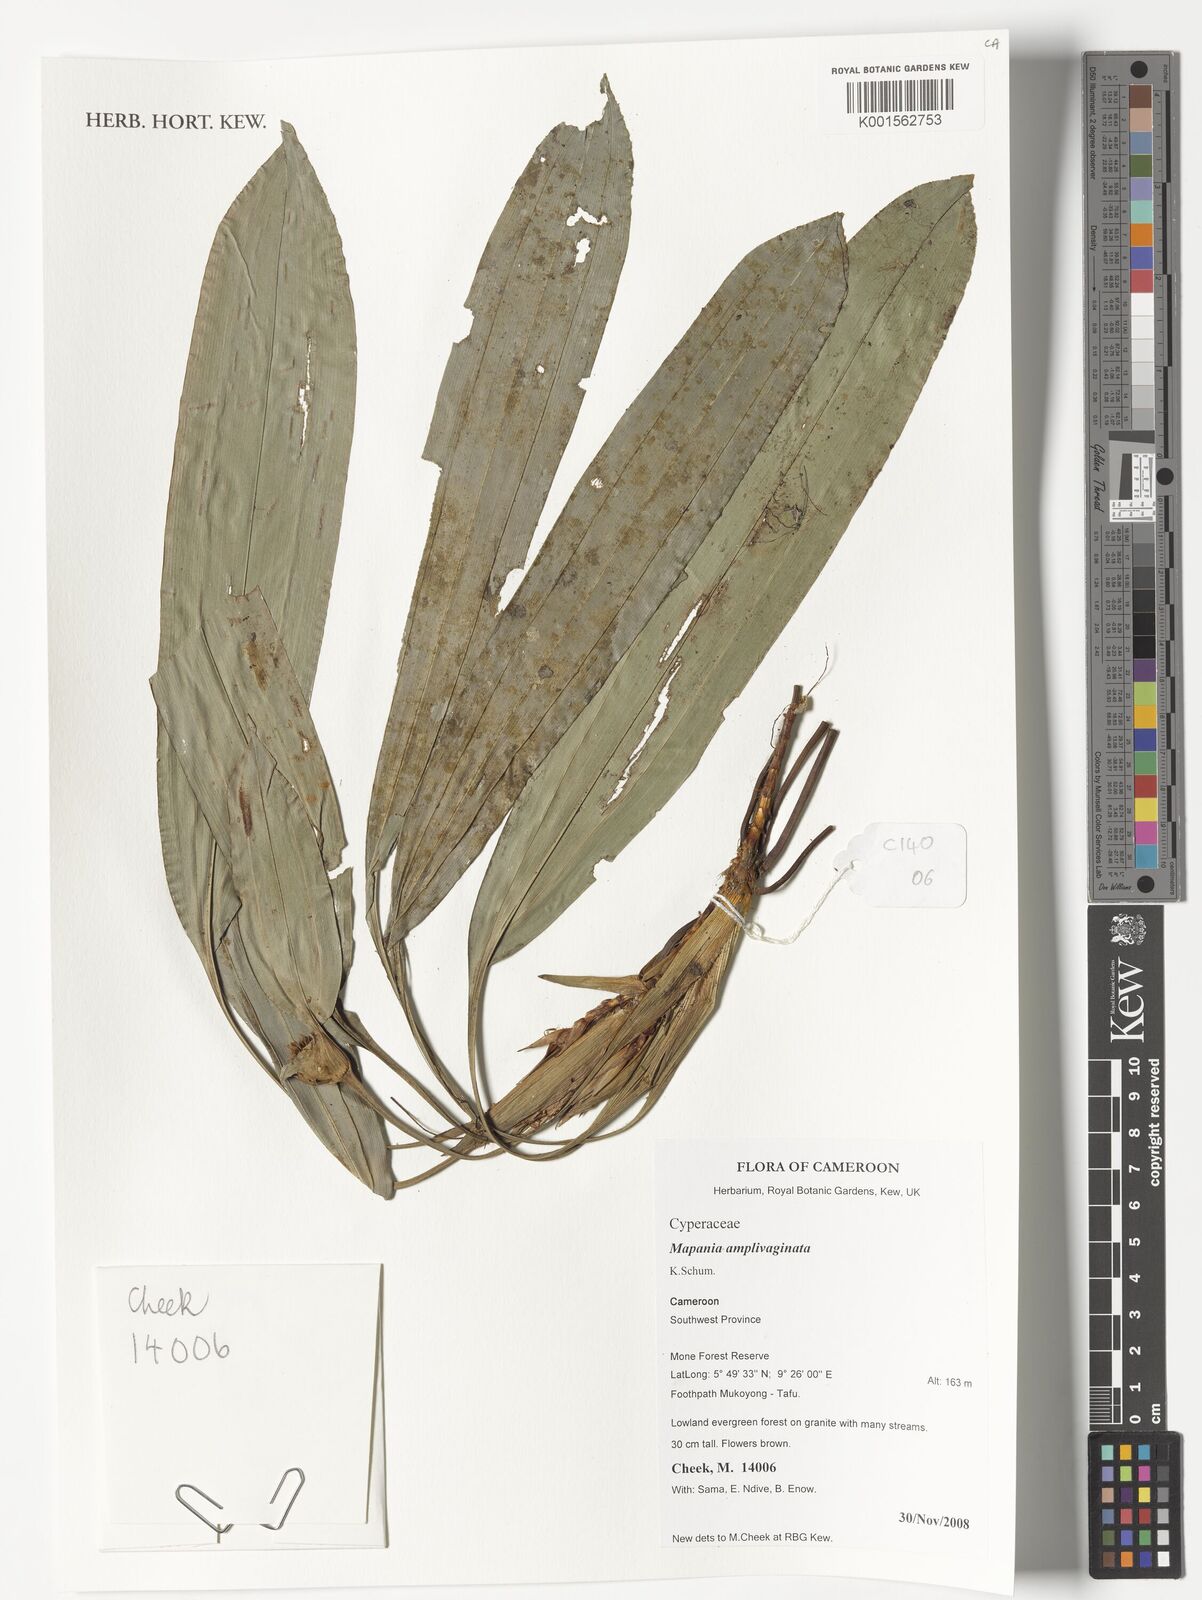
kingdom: Plantae
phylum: Tracheophyta
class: Liliopsida
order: Poales
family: Cyperaceae
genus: Mapania
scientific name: Mapania amplivaginata
